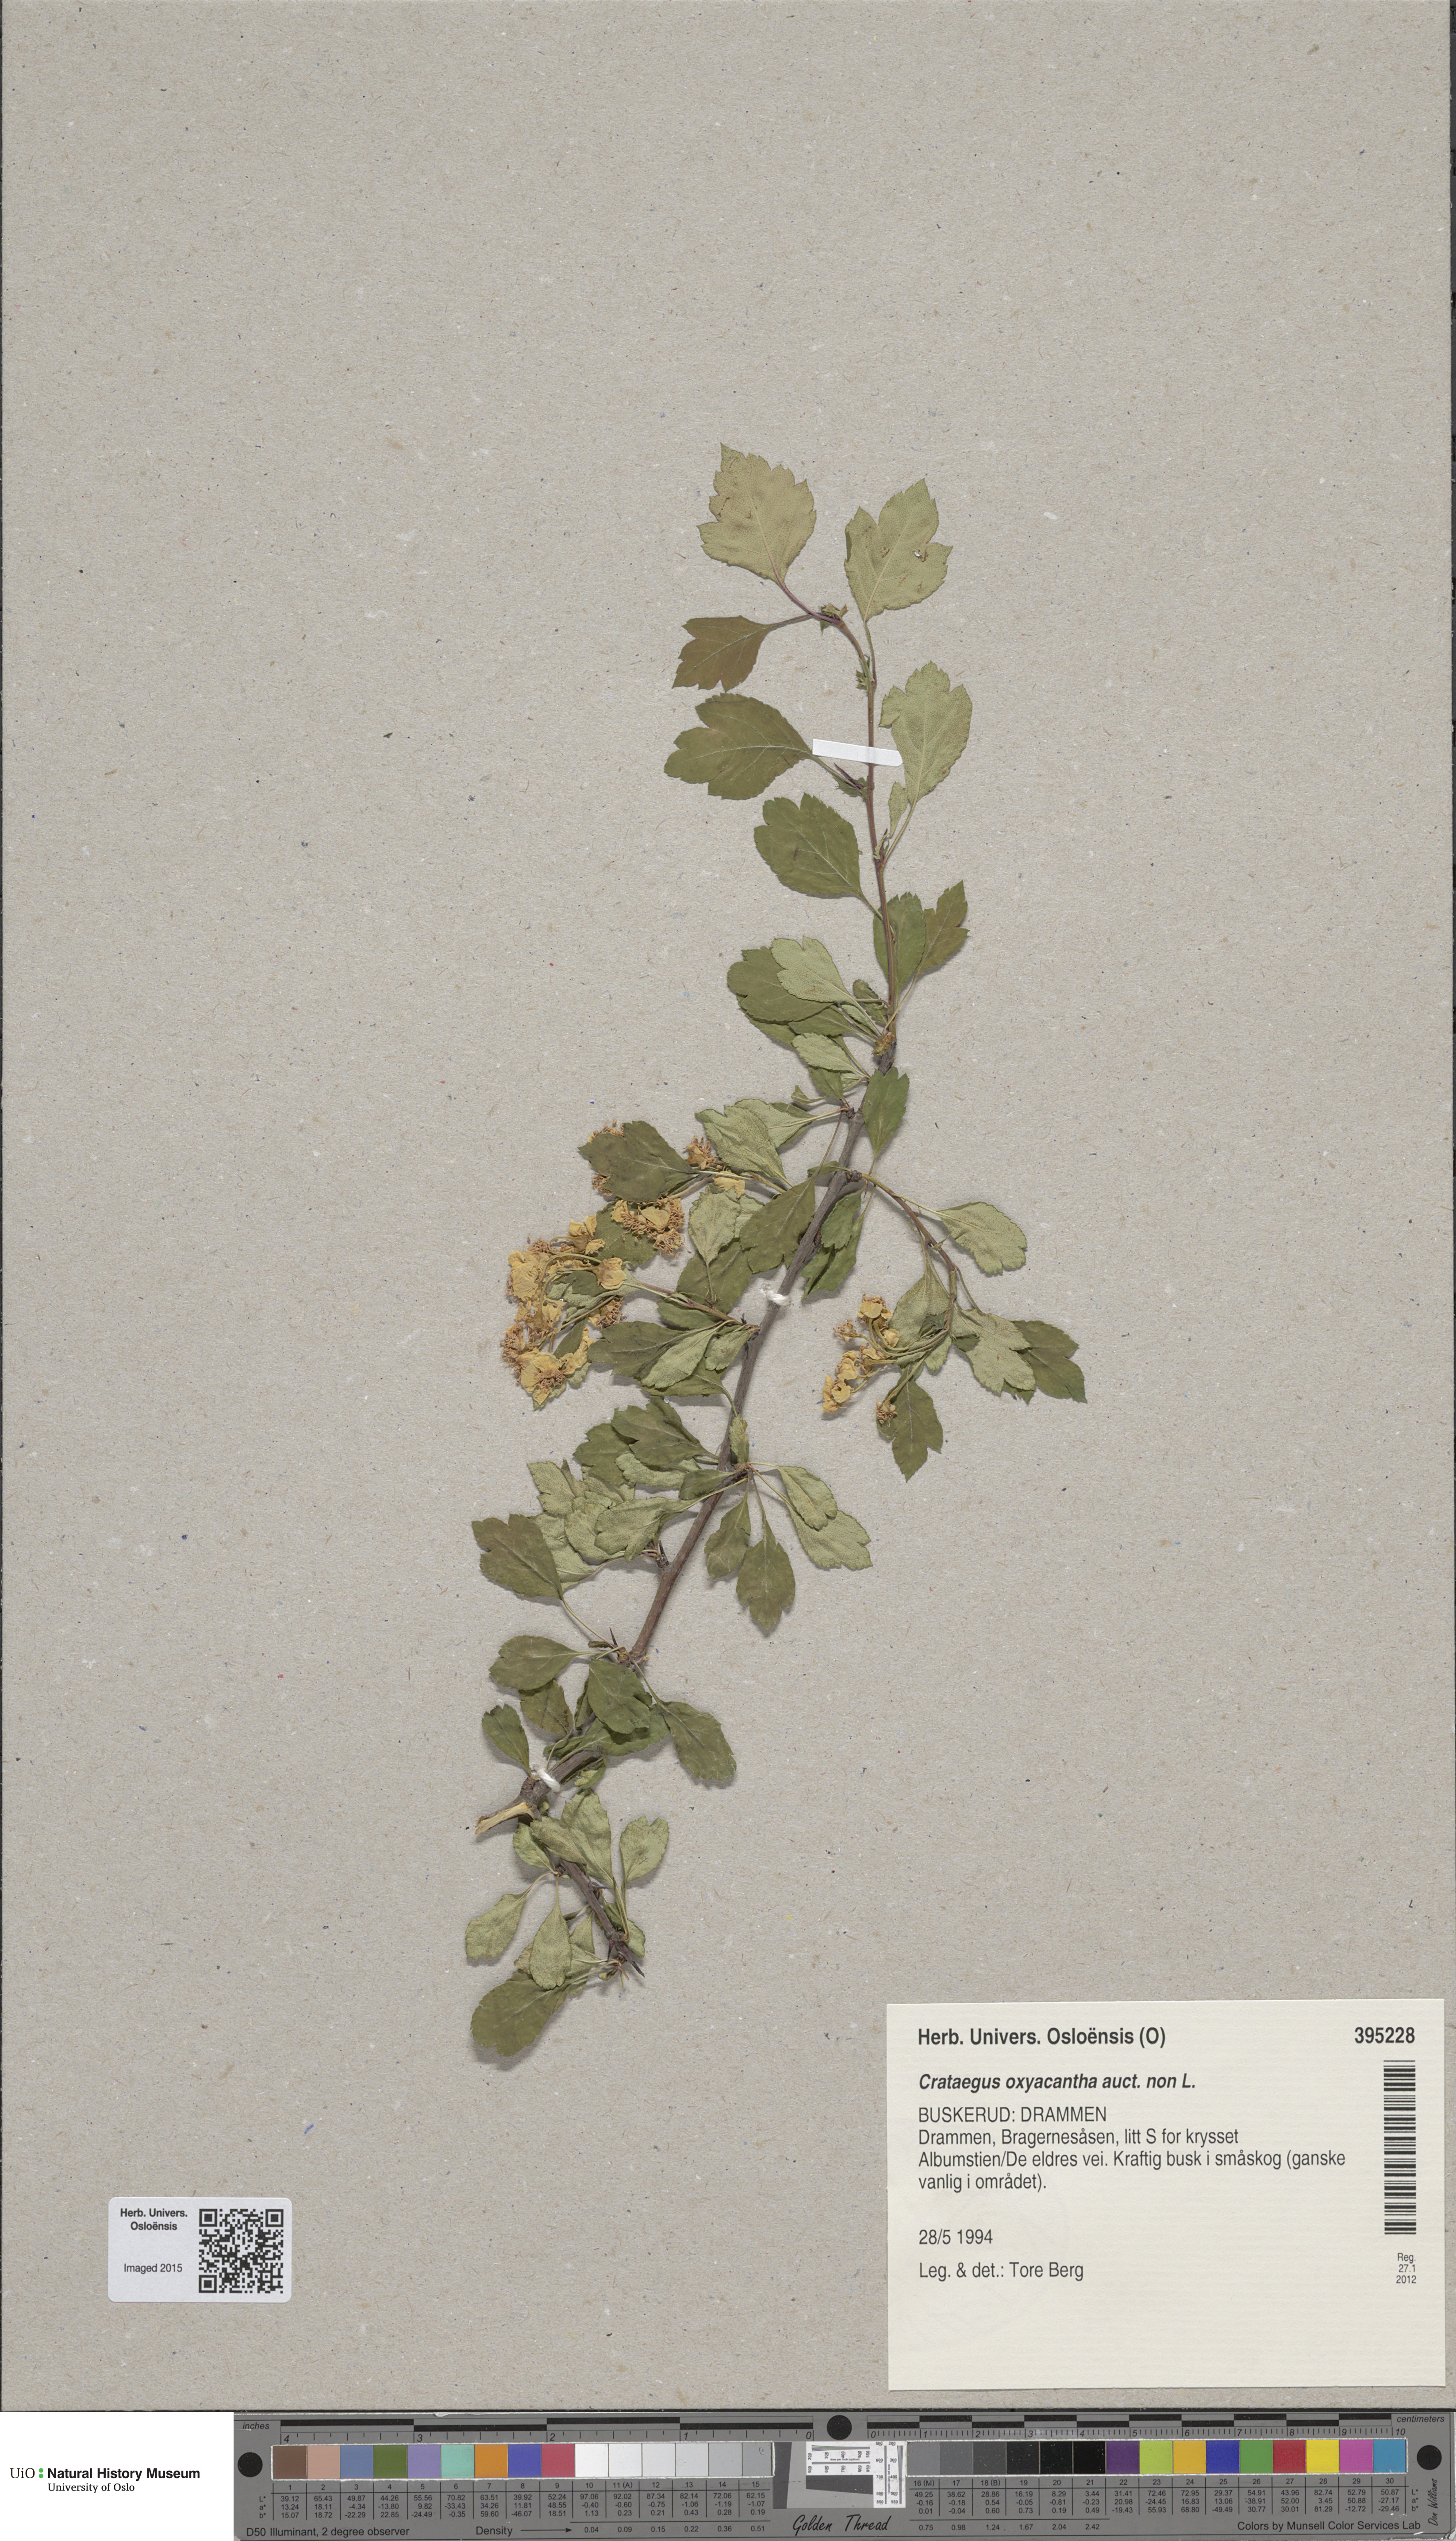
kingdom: Plantae
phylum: Tracheophyta
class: Magnoliopsida
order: Rosales
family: Rosaceae
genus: Crataegus
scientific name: Crataegus laevigata
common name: Midland hawthorn
